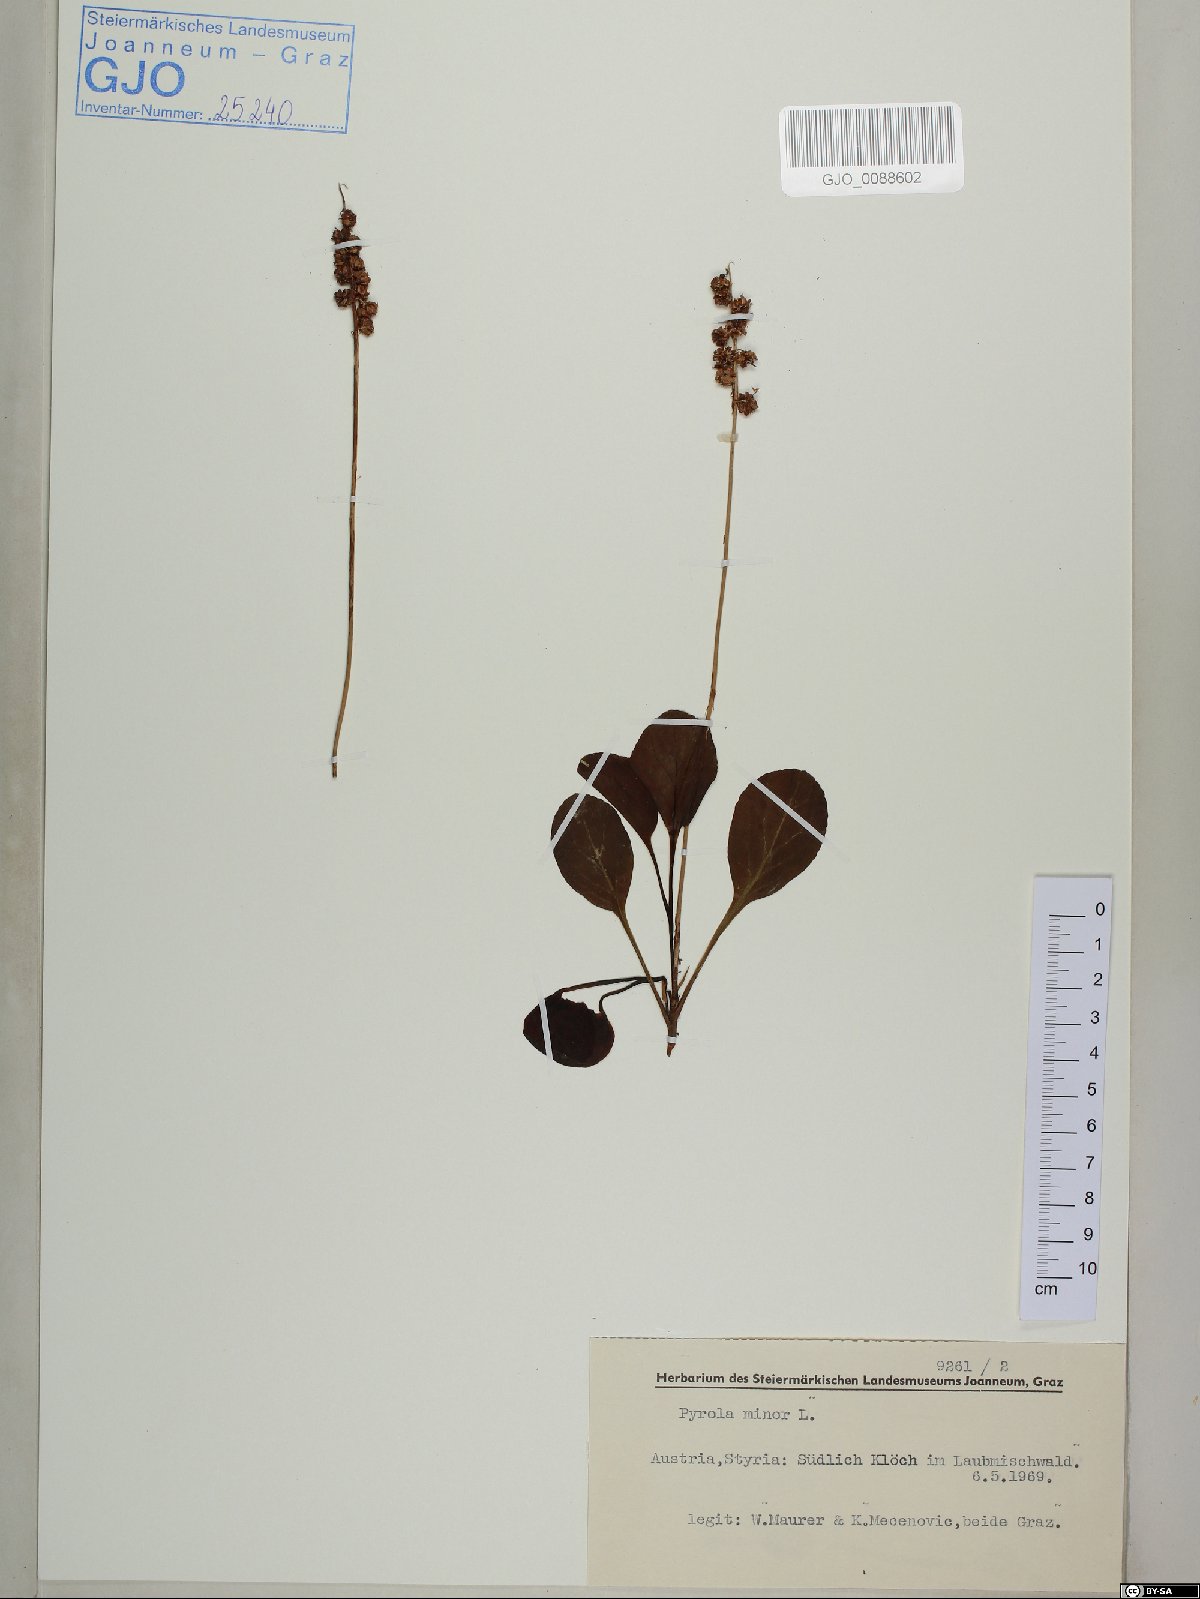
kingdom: Plantae
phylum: Tracheophyta
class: Magnoliopsida
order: Ericales
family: Ericaceae
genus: Pyrola
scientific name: Pyrola minor
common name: Common wintergreen
